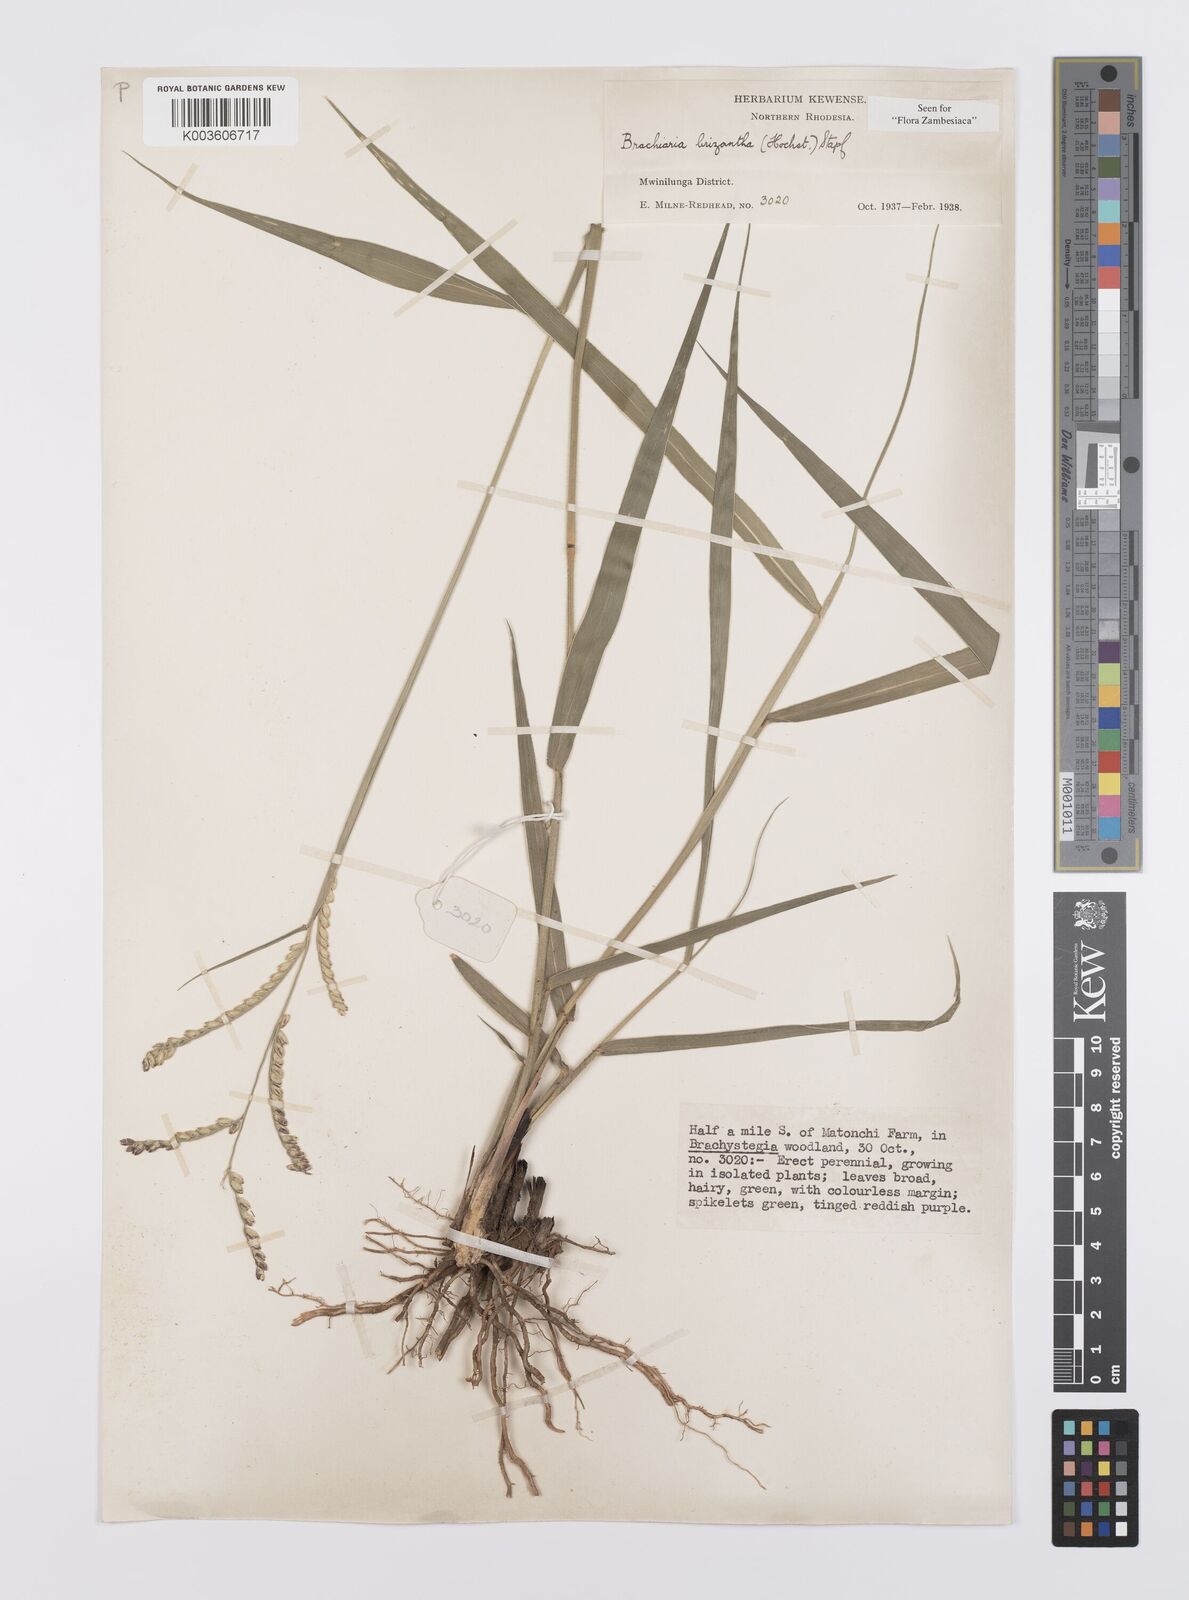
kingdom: Plantae
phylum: Tracheophyta
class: Liliopsida
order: Poales
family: Poaceae
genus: Urochloa
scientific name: Urochloa brizantha
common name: Palisade signalgrass
